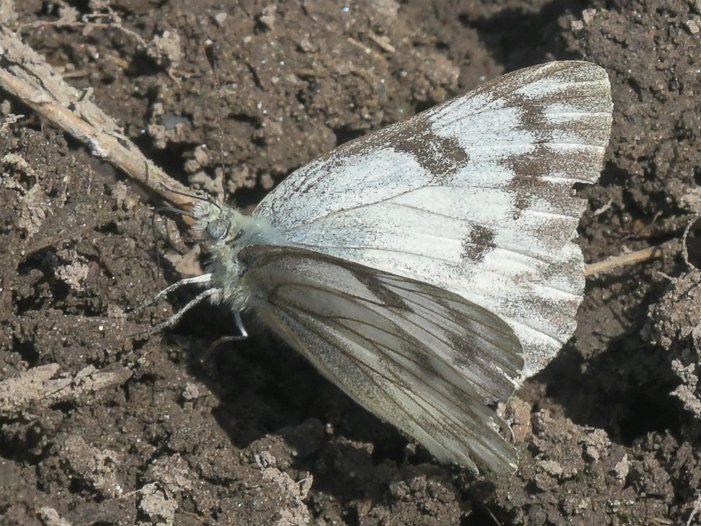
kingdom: Animalia
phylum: Arthropoda
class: Insecta
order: Lepidoptera
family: Pieridae
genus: Pontia
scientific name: Pontia occidentalis
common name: Western White
